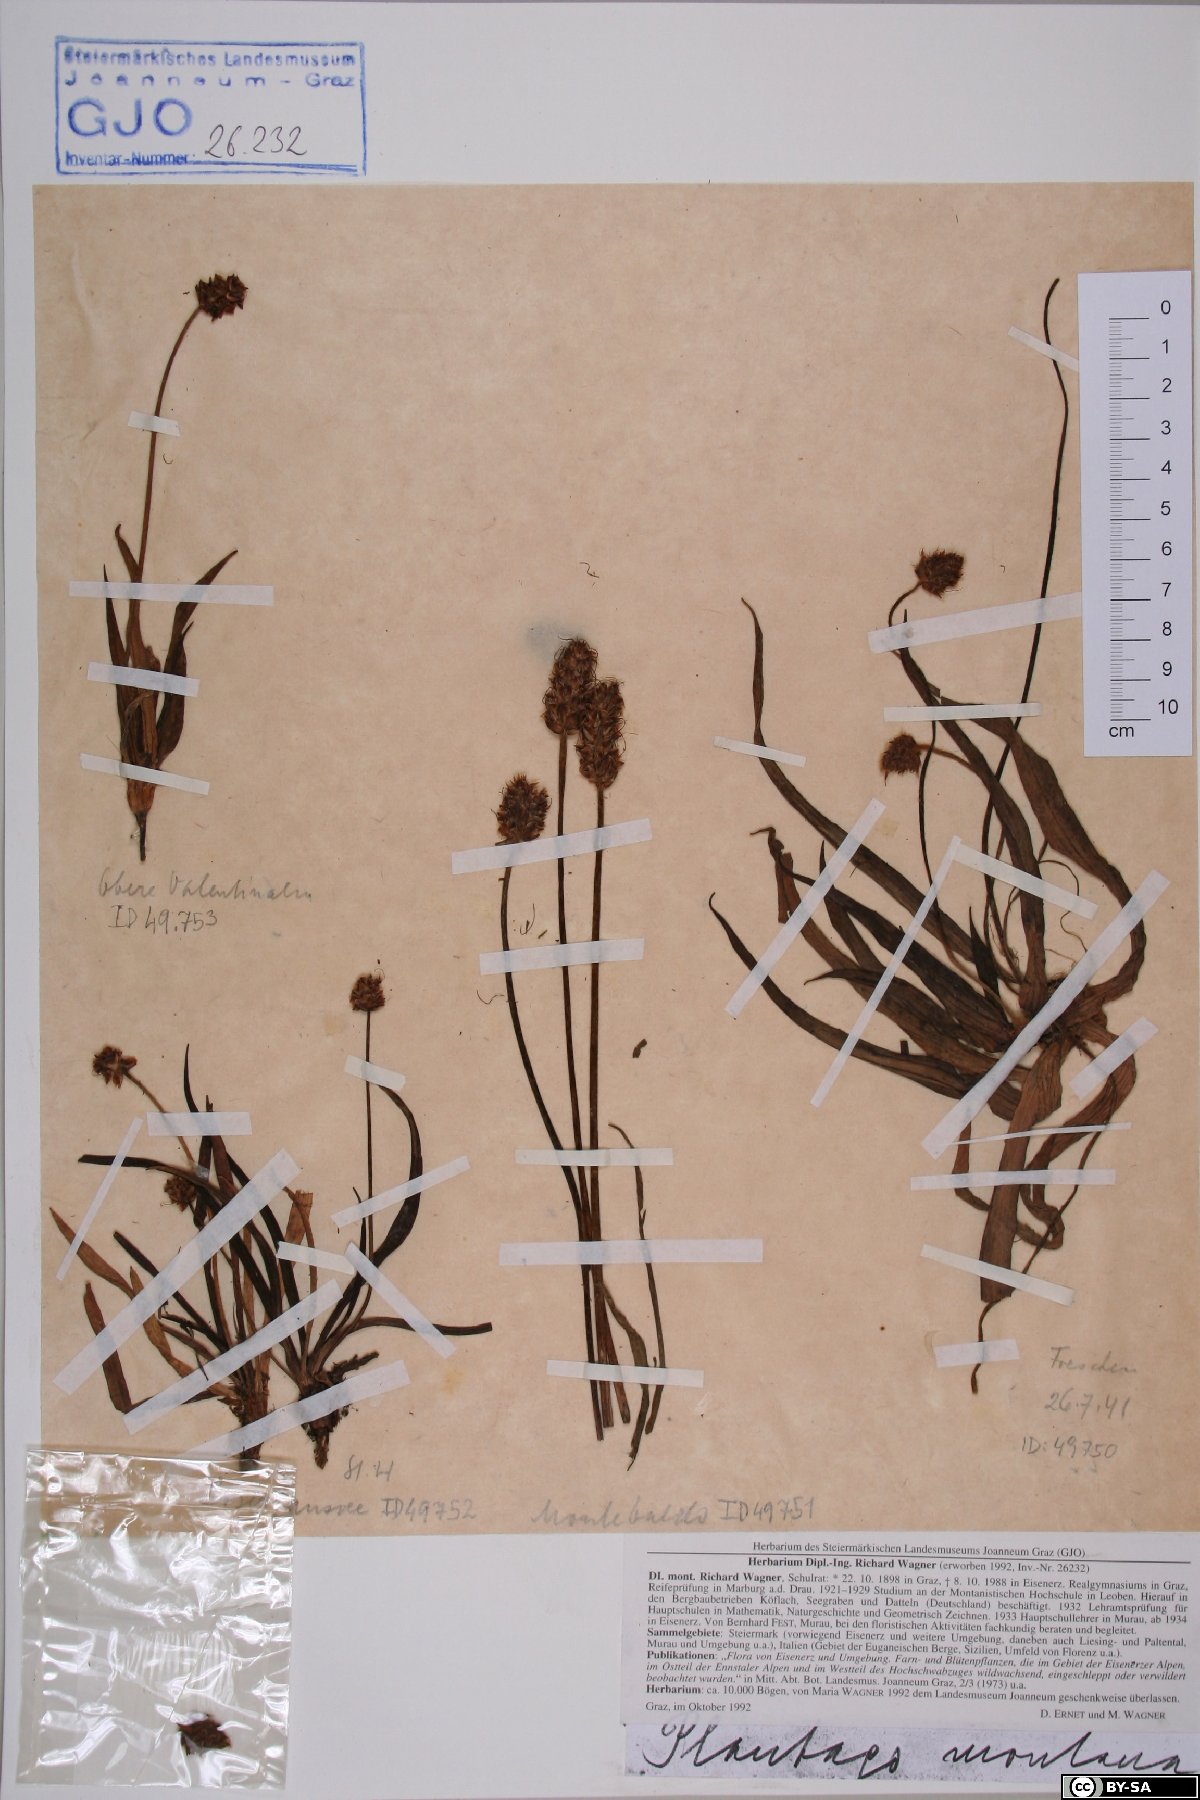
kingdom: Plantae
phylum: Tracheophyta
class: Magnoliopsida
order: Lamiales
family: Plantaginaceae
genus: Plantago
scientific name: Plantago atrata
